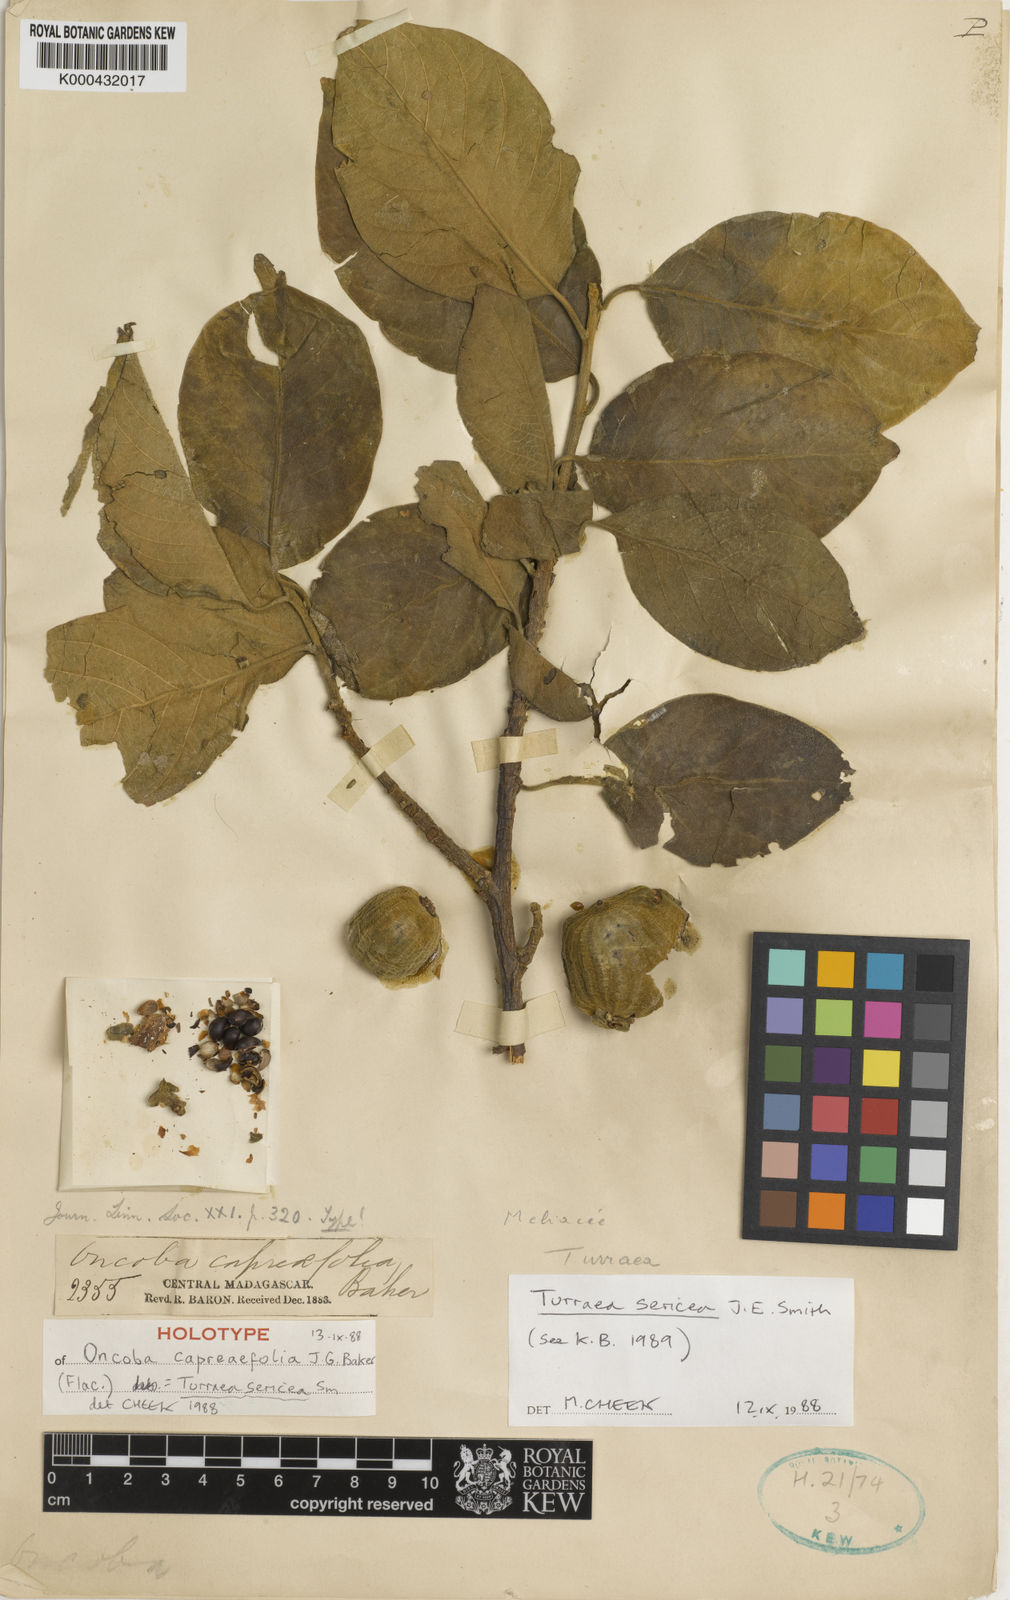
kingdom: Plantae
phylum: Tracheophyta
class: Magnoliopsida
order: Sapindales
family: Meliaceae
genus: Turraea
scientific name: Turraea sericea
